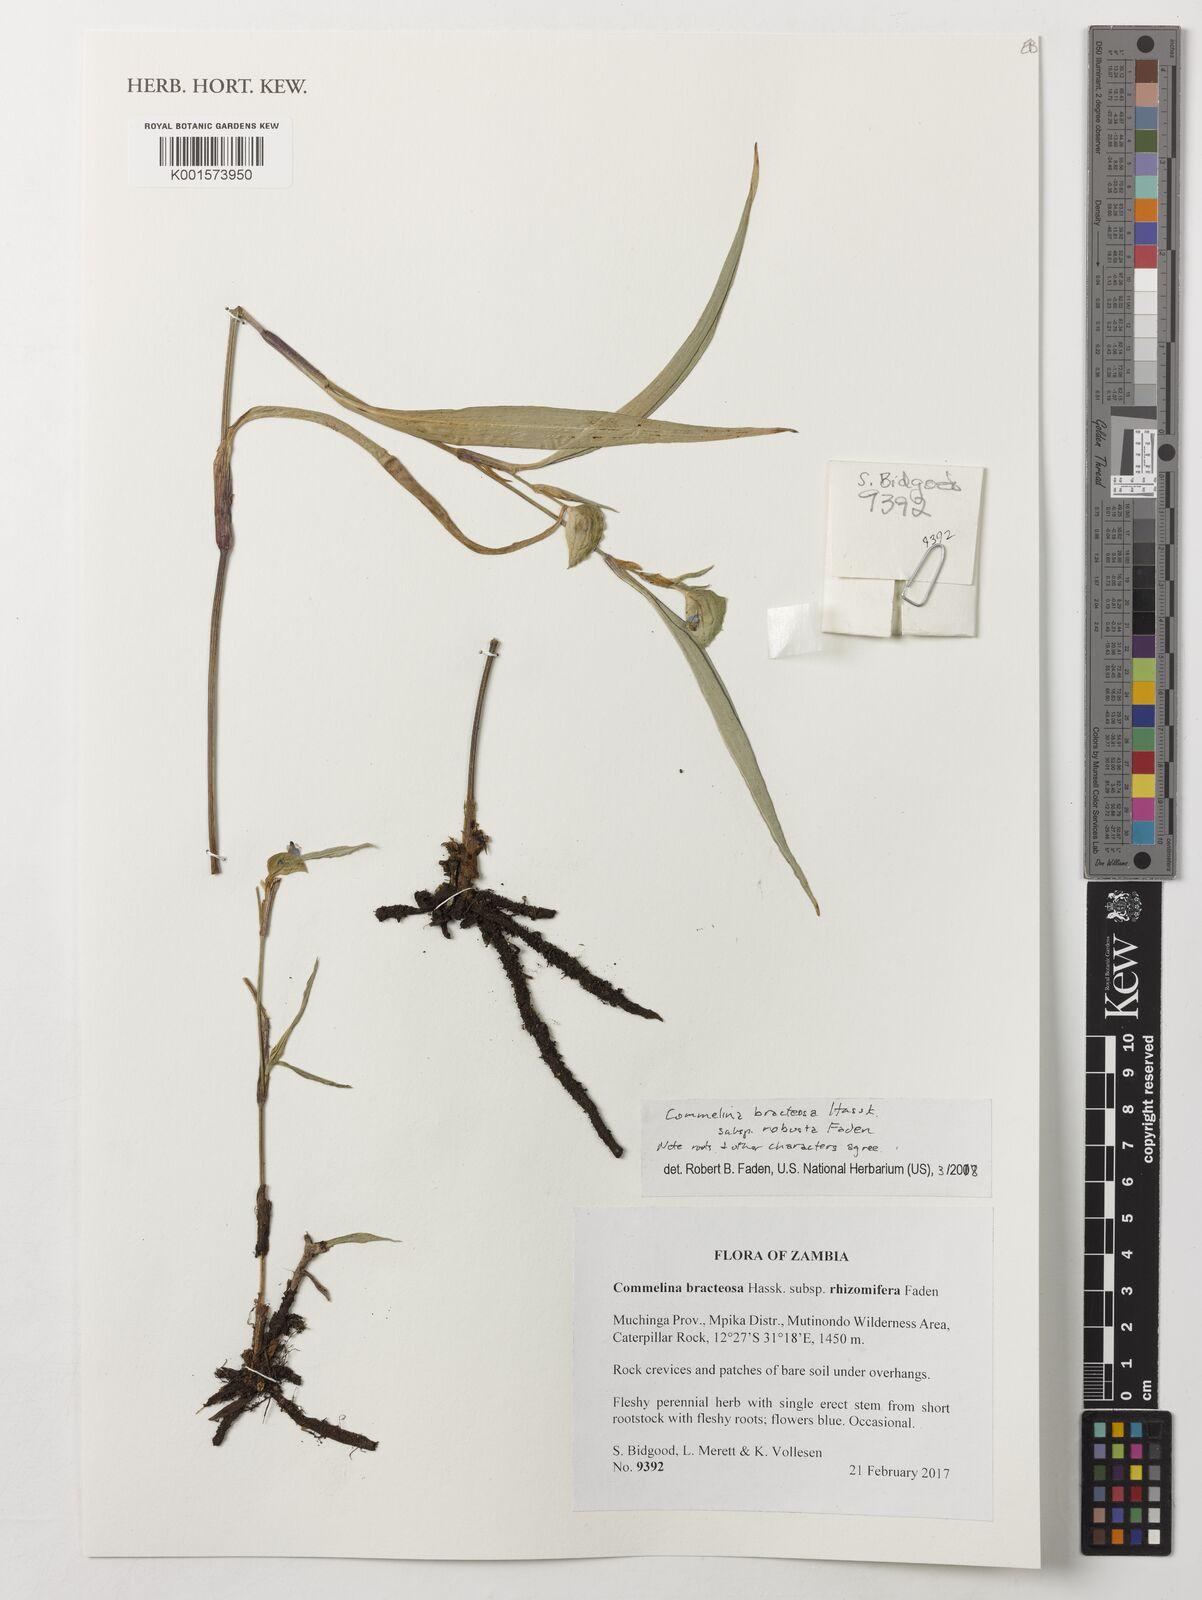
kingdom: Plantae
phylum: Tracheophyta
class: Liliopsida
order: Commelinales
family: Commelinaceae
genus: Commelina
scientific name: Commelina bracteosa
